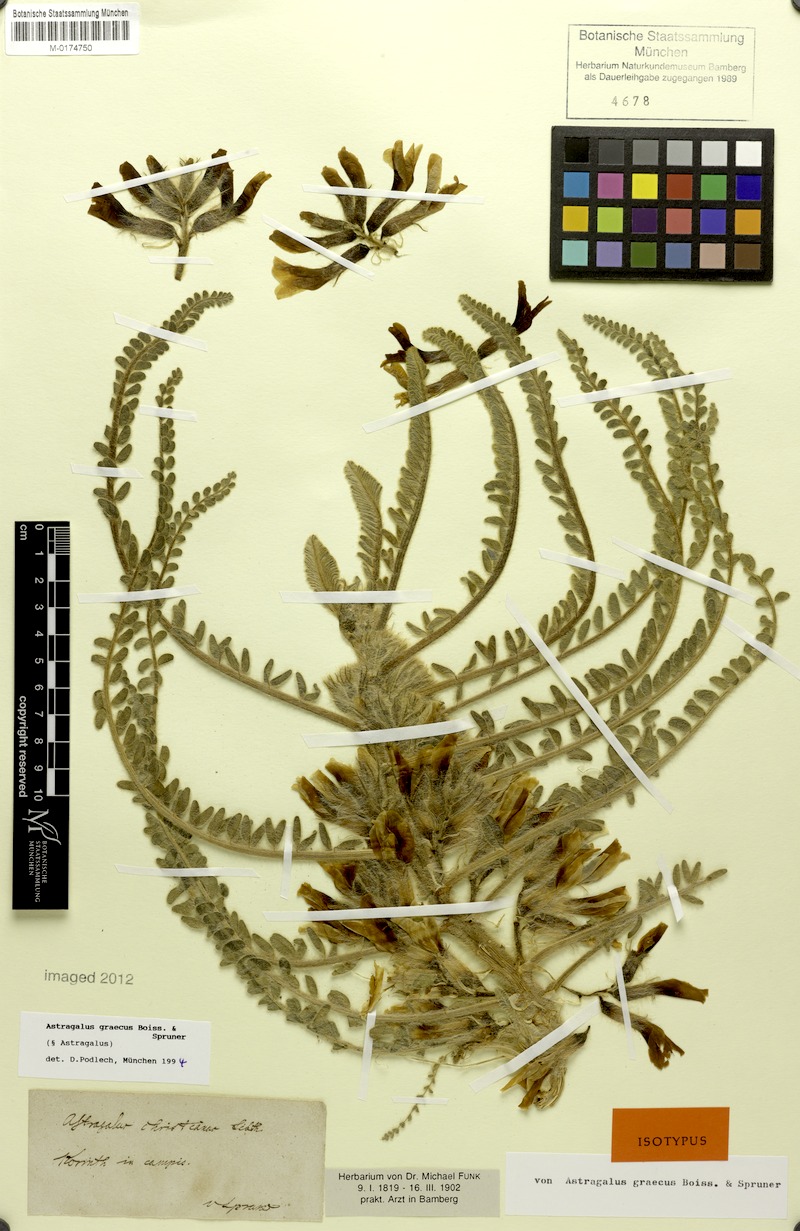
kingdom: Plantae
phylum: Tracheophyta
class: Magnoliopsida
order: Fabales
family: Fabaceae
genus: Astragalus
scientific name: Astragalus graecus
